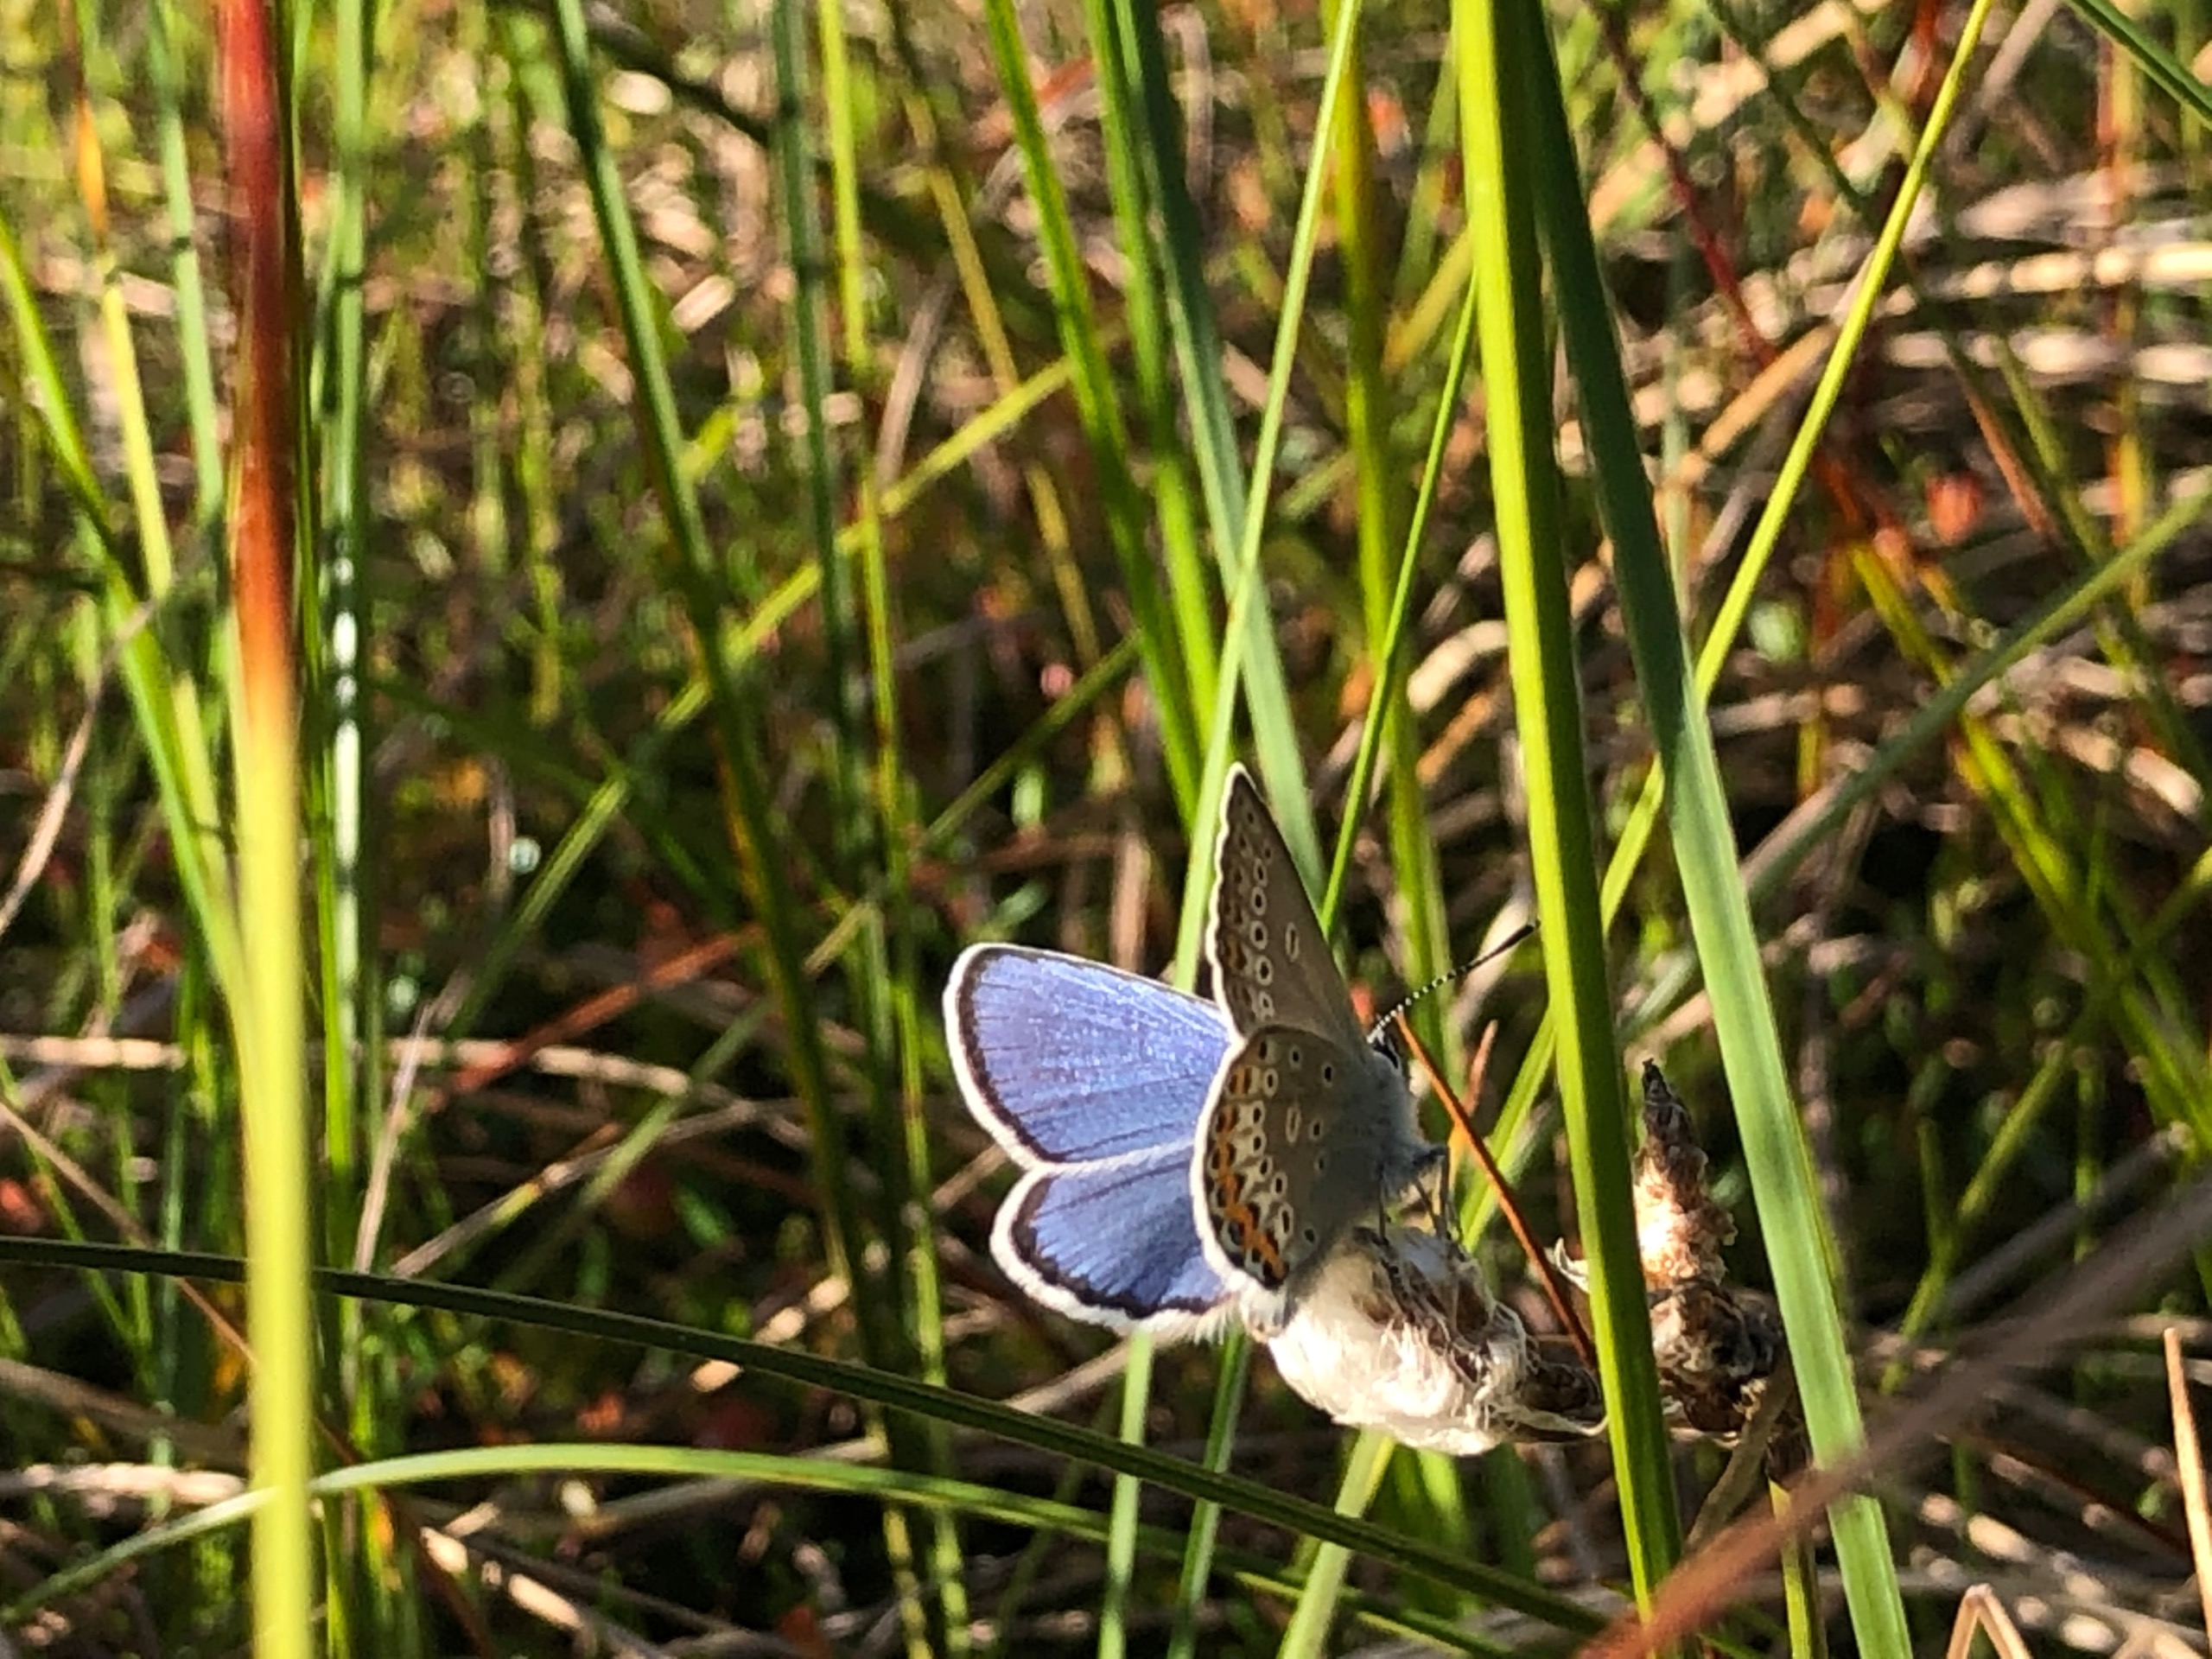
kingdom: Animalia
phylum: Arthropoda
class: Insecta
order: Lepidoptera
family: Lycaenidae
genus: Lycaeides
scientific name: Lycaeides idas
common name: Foranderlig blåfugl
